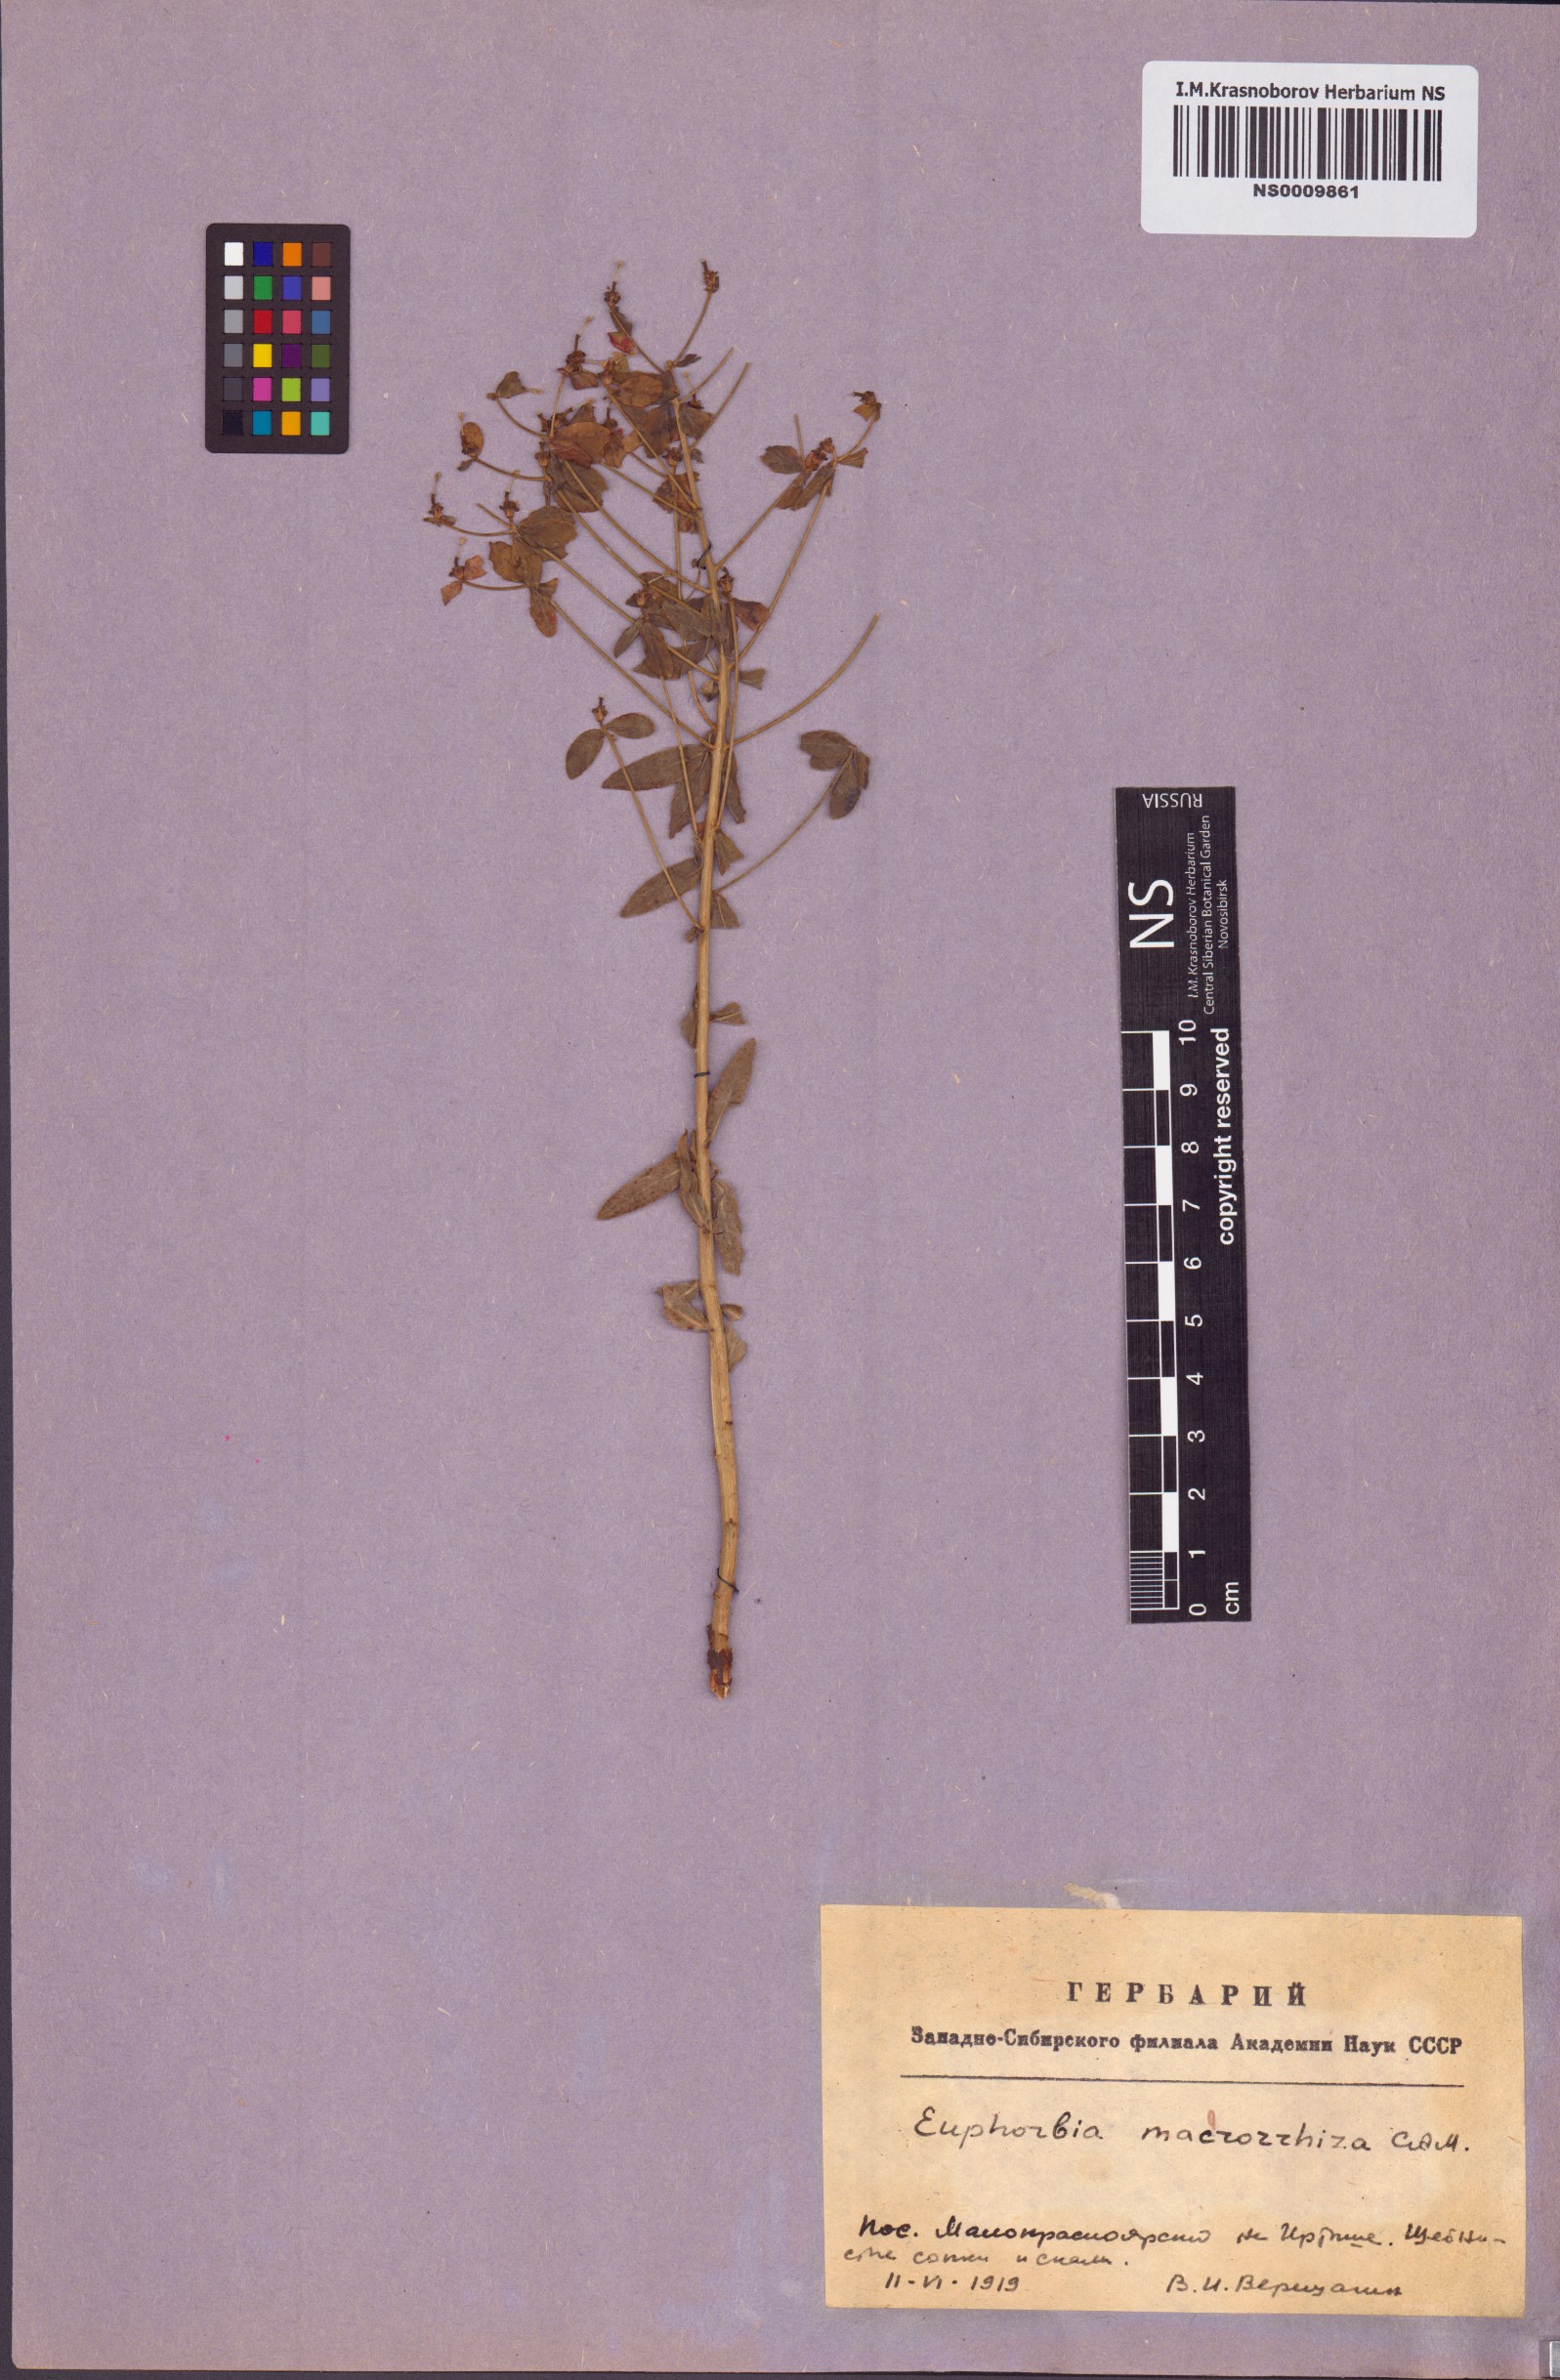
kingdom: Plantae
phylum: Tracheophyta
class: Magnoliopsida
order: Malpighiales
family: Euphorbiaceae
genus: Euphorbia
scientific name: Euphorbia macrorhiza
